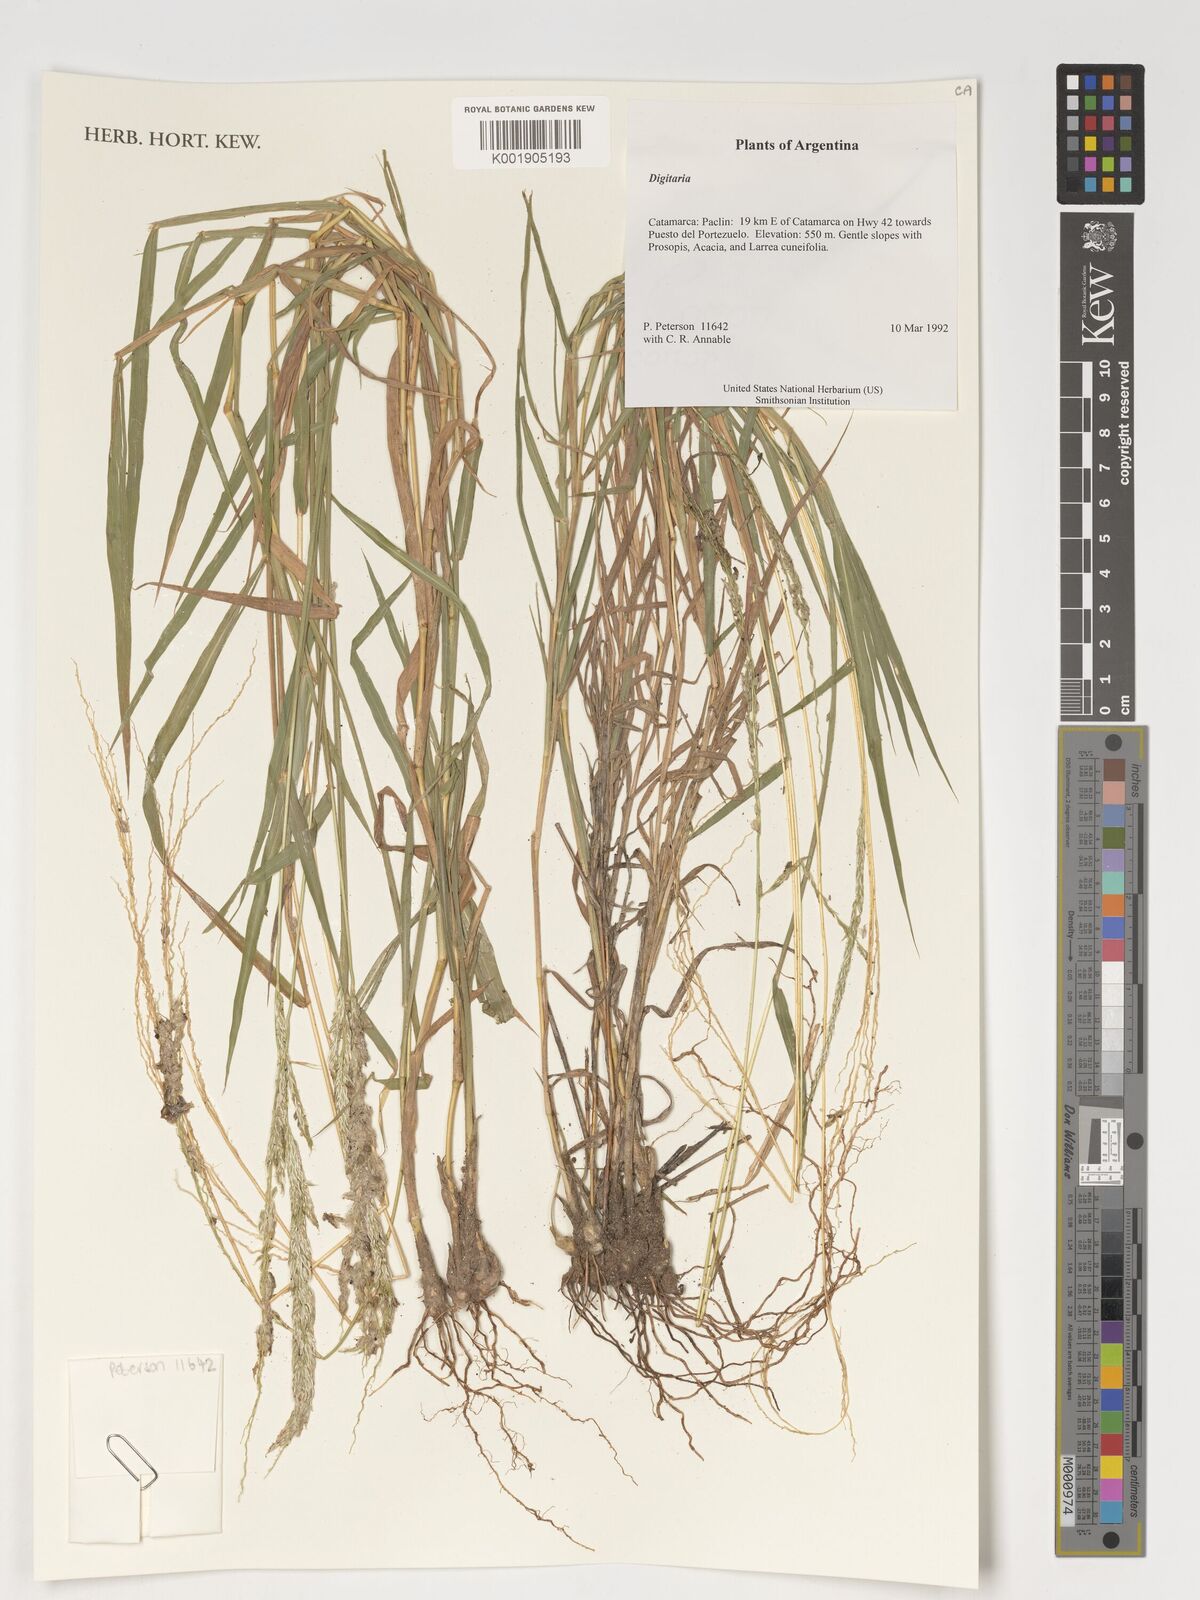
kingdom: Plantae
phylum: Tracheophyta
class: Liliopsida
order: Poales
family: Poaceae
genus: Digitaria
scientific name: Digitaria spec
